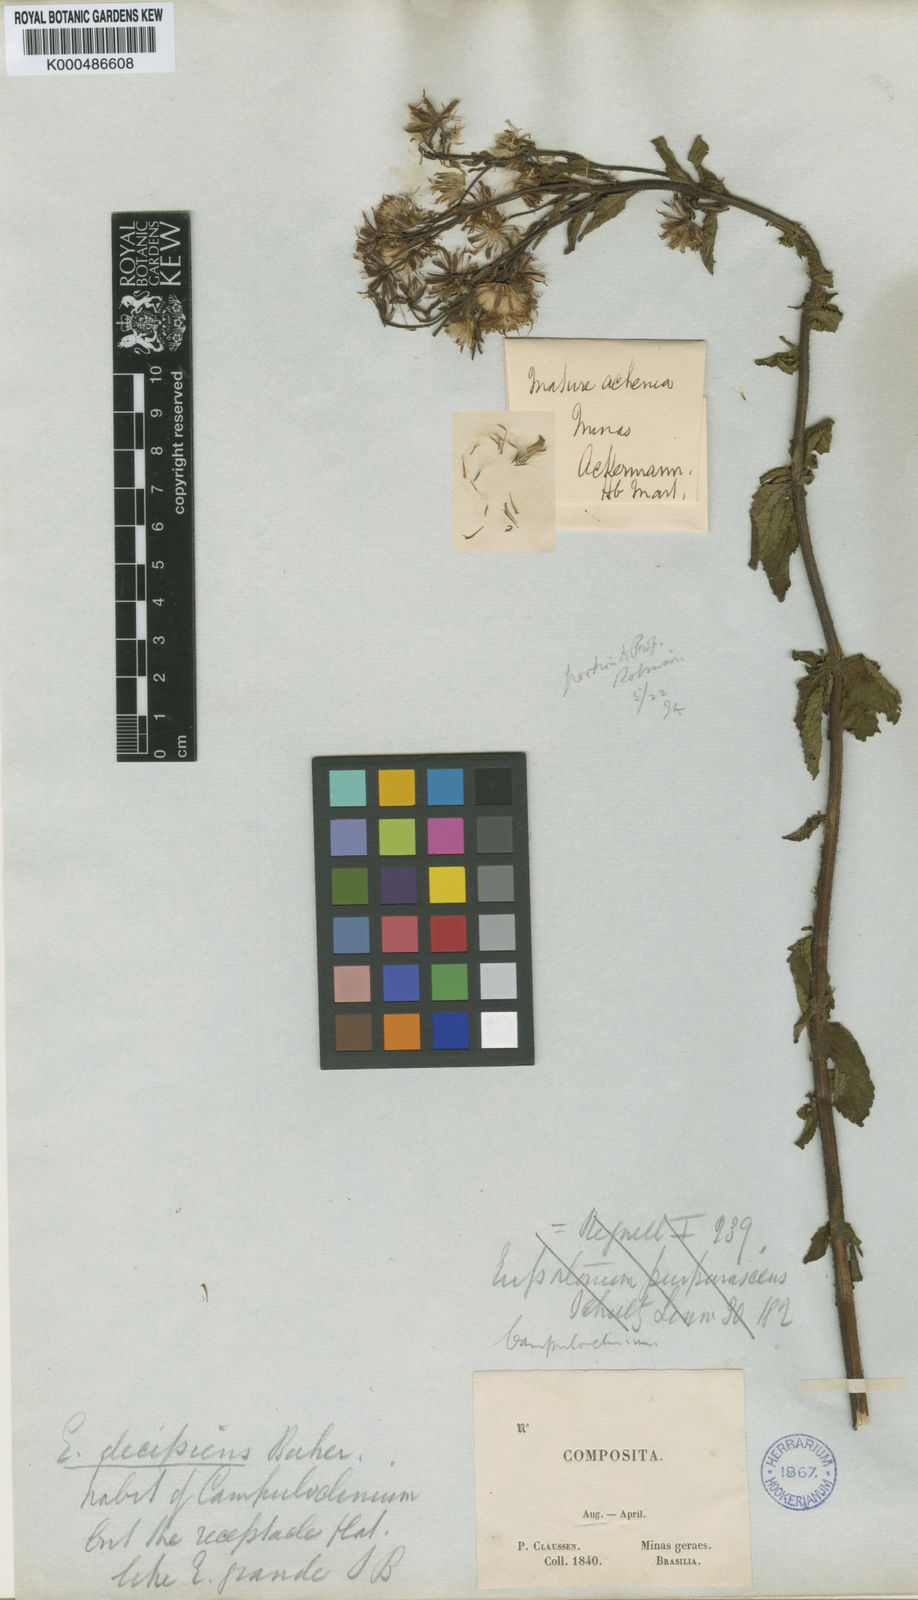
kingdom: Plantae
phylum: Tracheophyta
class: Magnoliopsida
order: Asterales
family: Asteraceae
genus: Heterocondylus
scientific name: Heterocondylus decipiens
